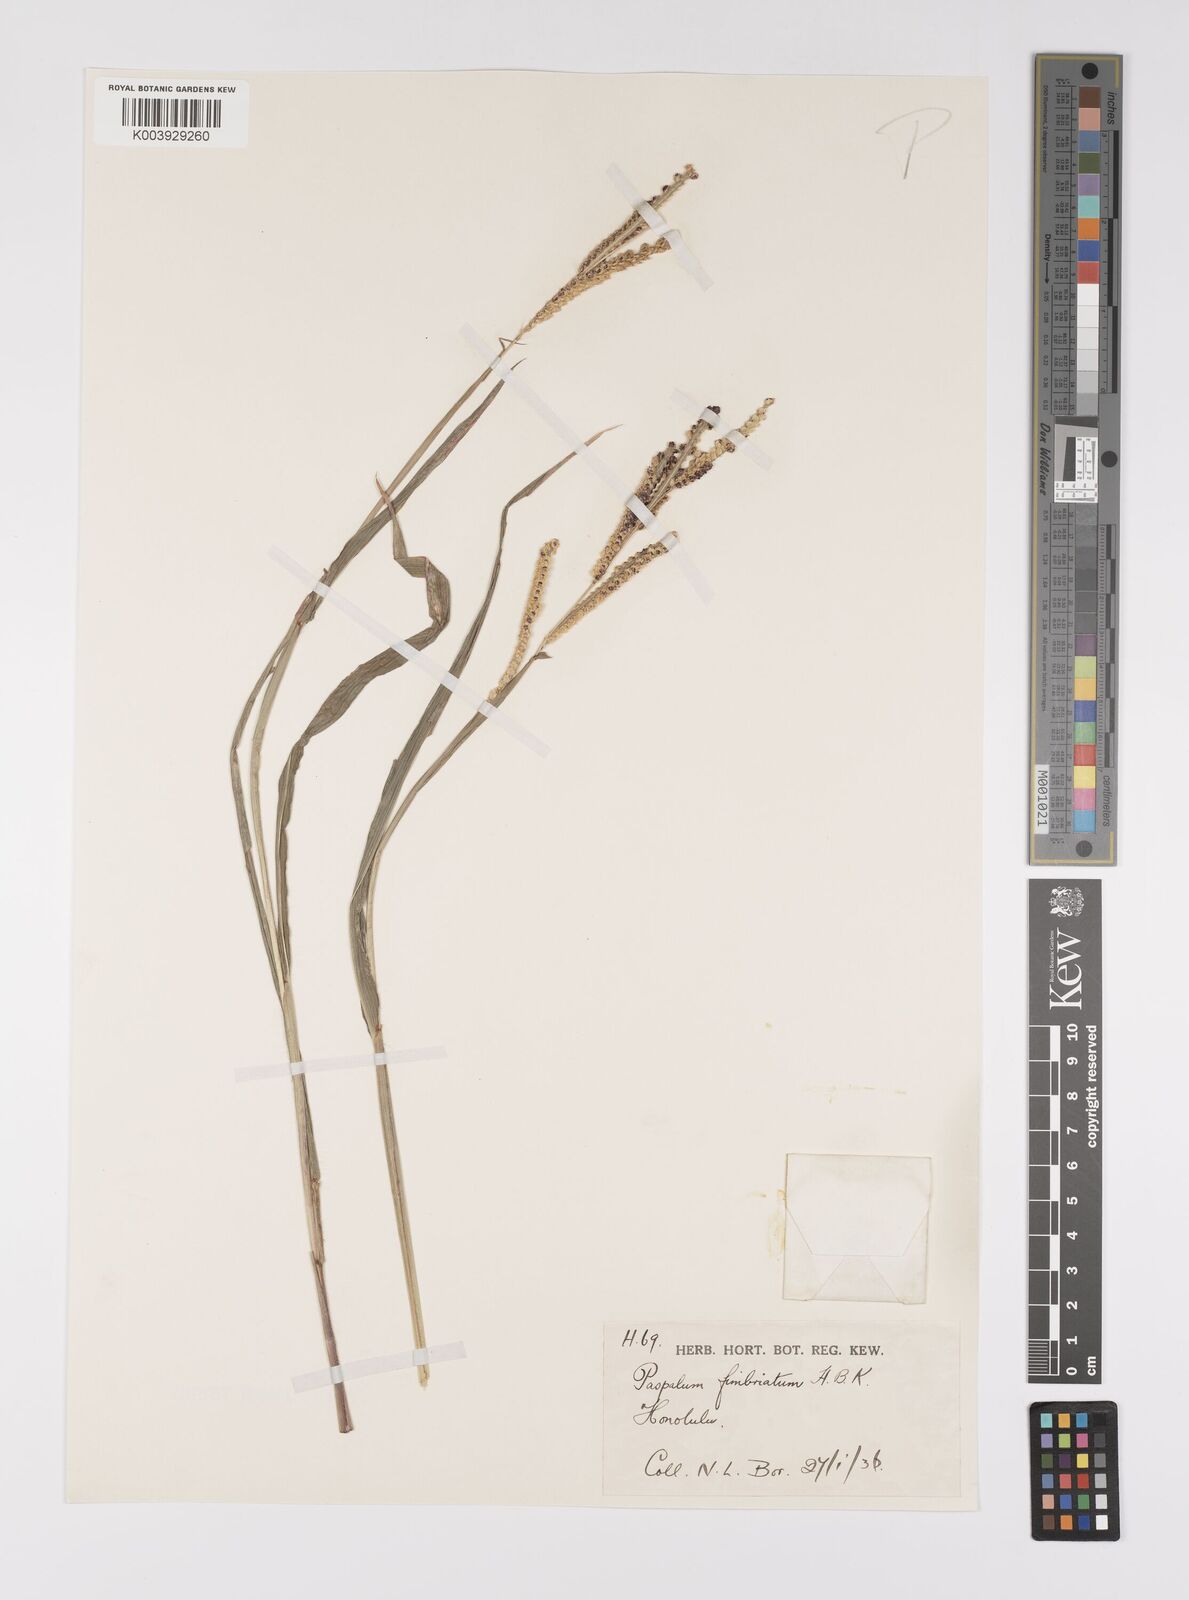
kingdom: Plantae
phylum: Tracheophyta
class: Liliopsida
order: Poales
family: Poaceae
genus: Paspalum
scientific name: Paspalum fimbriatum
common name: Panama crowngrass
